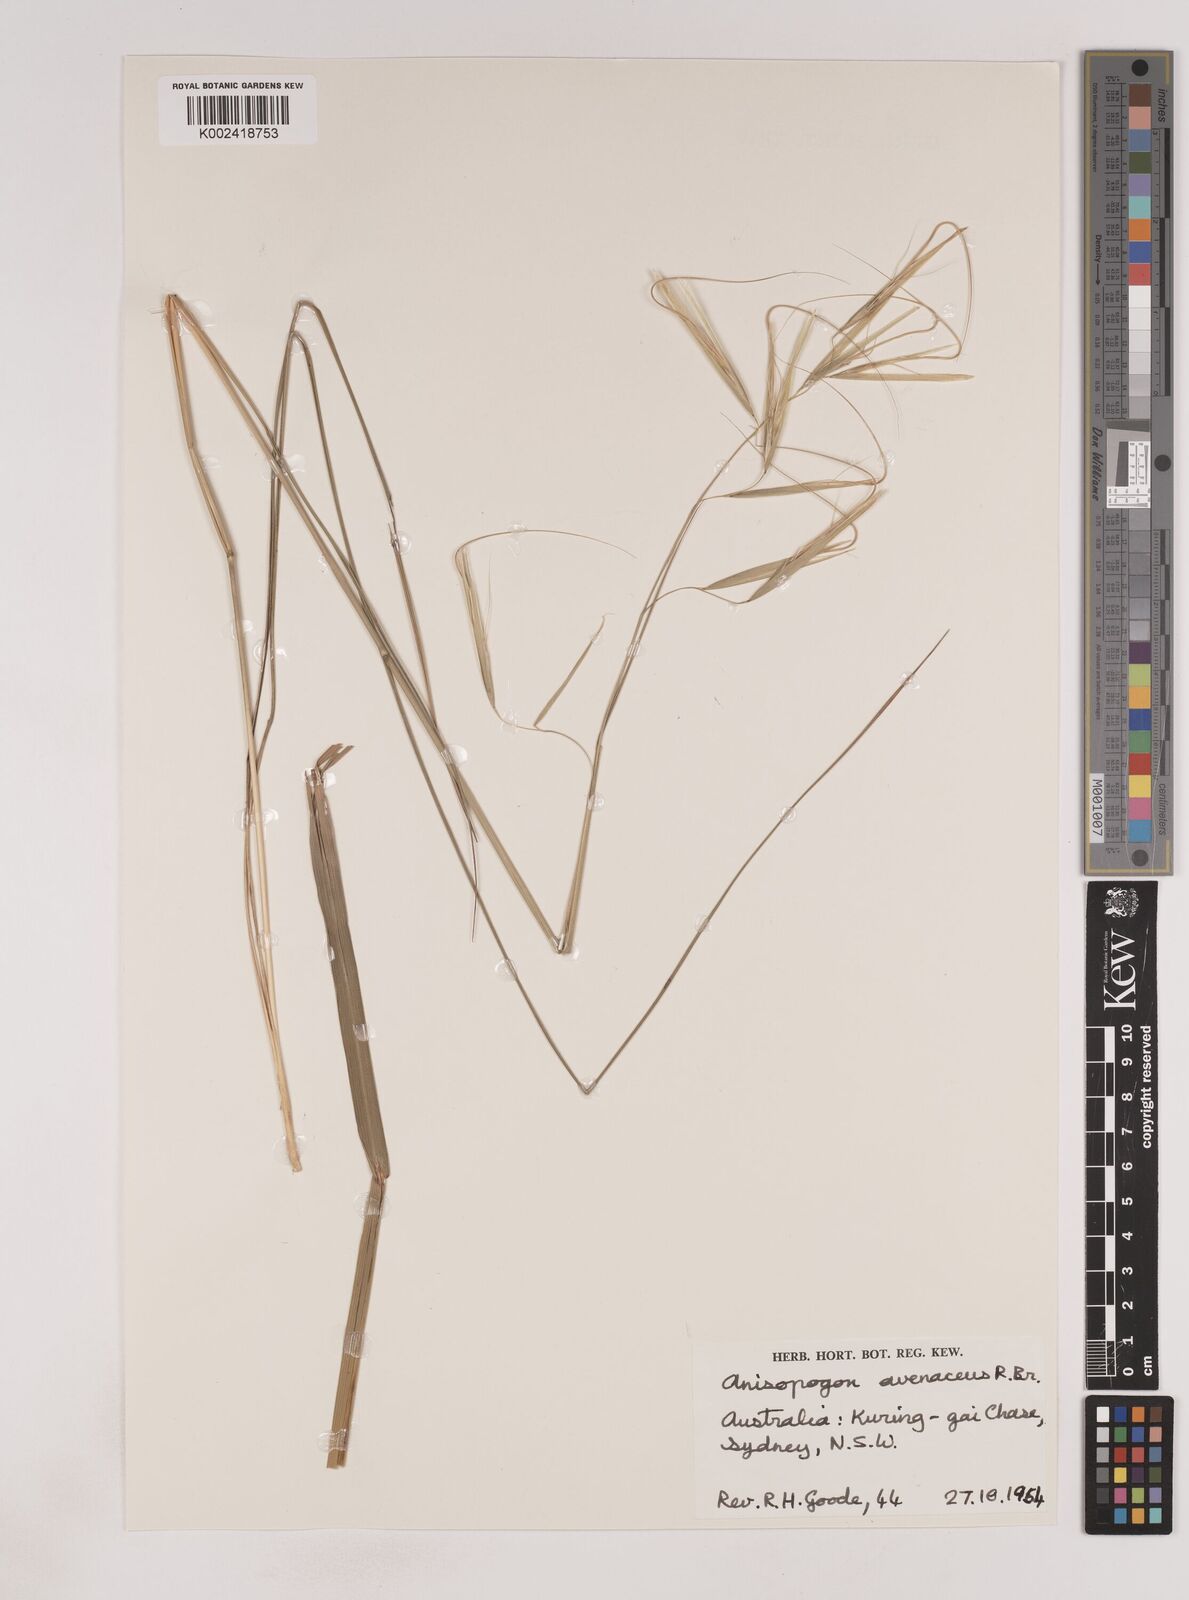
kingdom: Plantae
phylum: Tracheophyta
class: Liliopsida
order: Poales
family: Poaceae
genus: Anisopogon
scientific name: Anisopogon avenaceus
